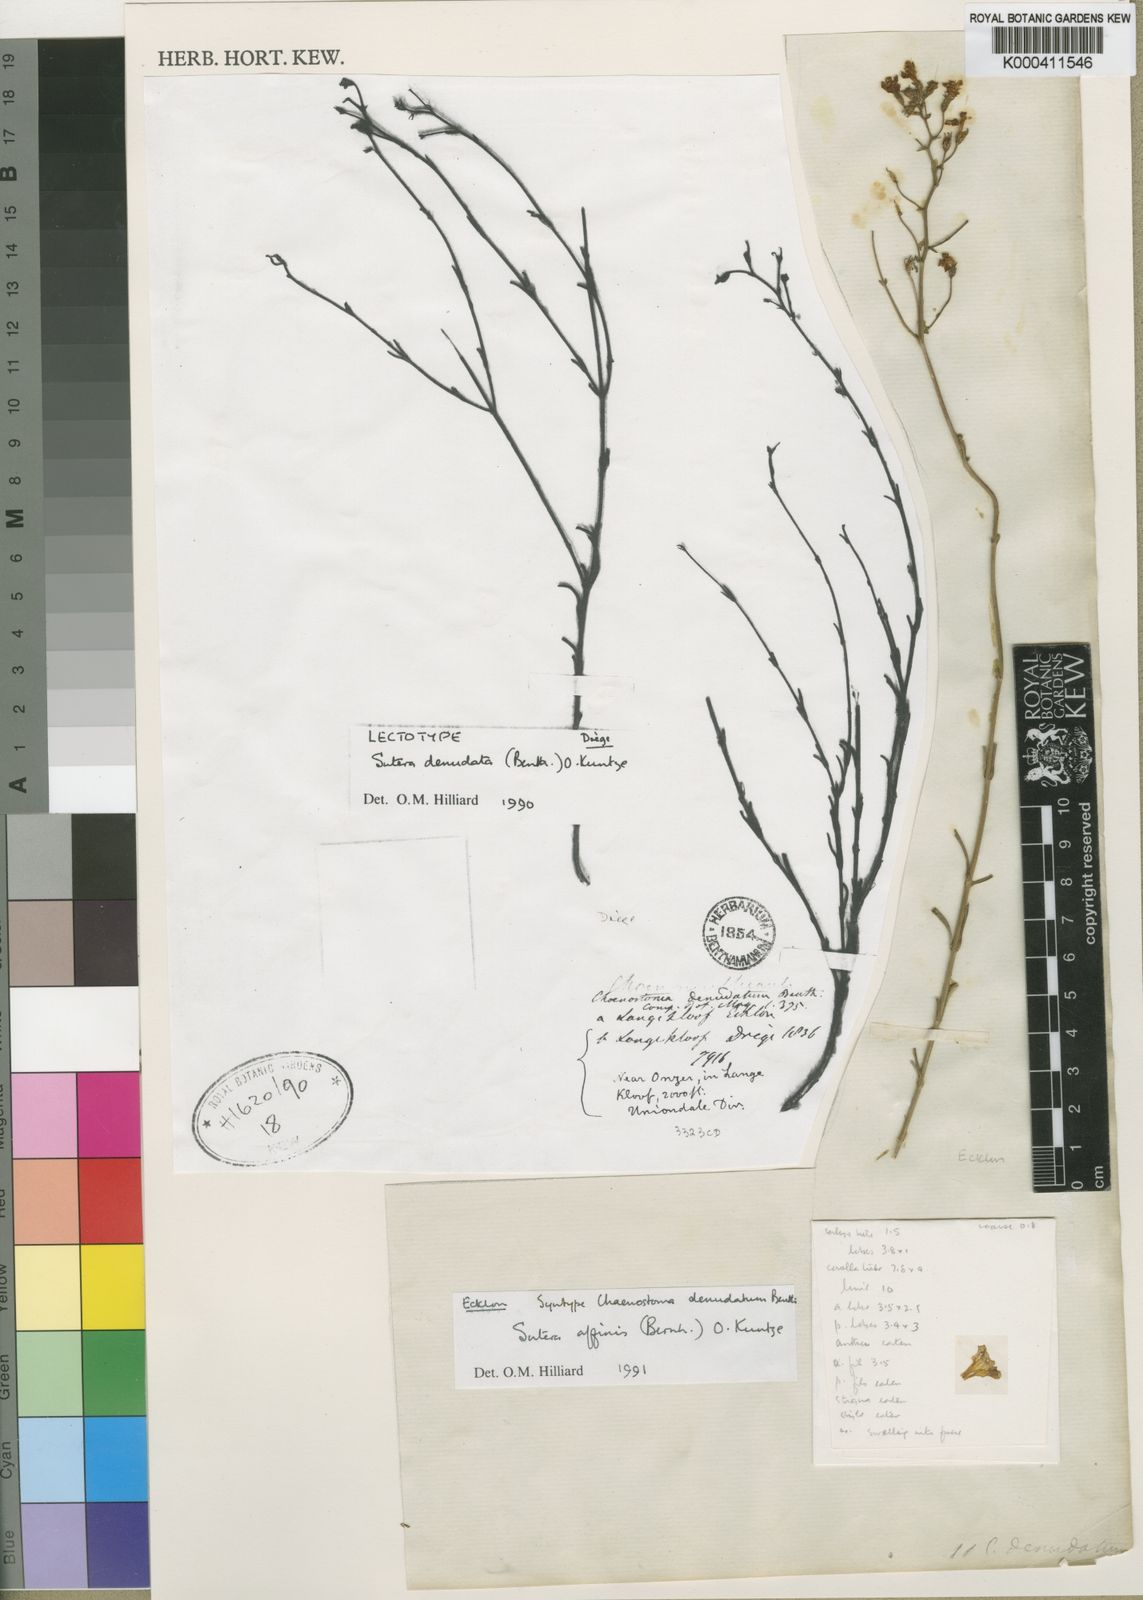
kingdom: Plantae
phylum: Tracheophyta
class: Magnoliopsida
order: Lamiales
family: Scrophulariaceae
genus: Chaenostoma
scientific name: Chaenostoma affine
